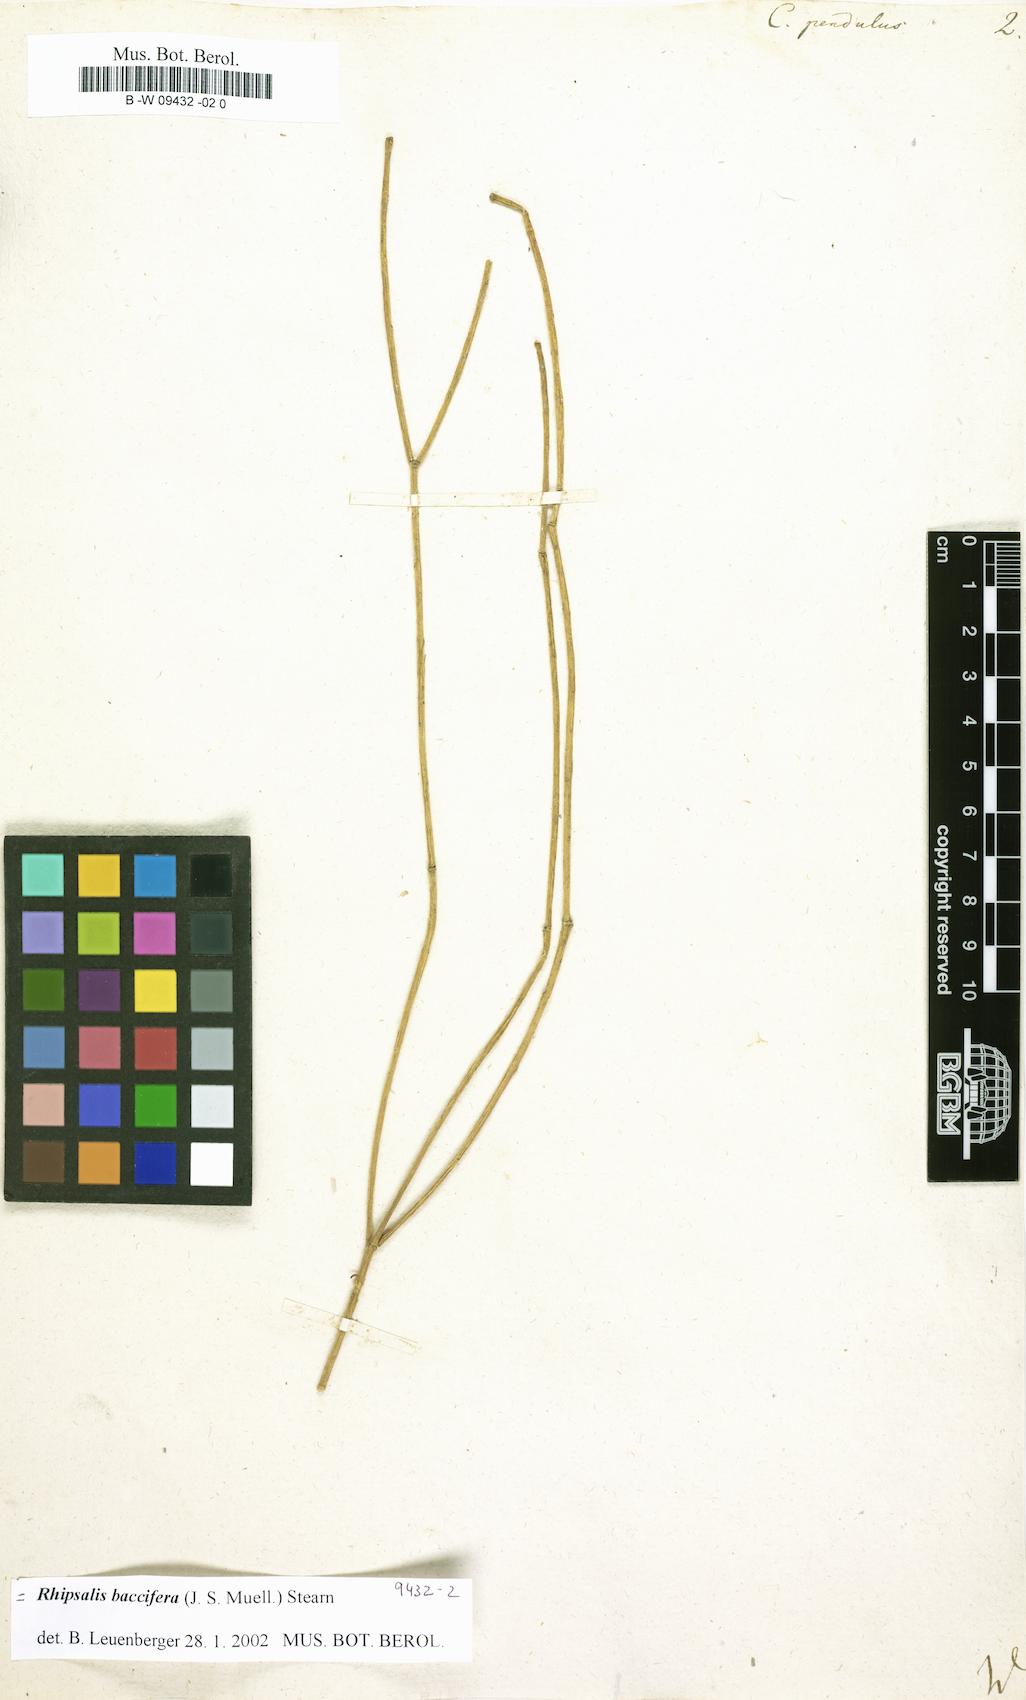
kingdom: Plantae
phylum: Tracheophyta
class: Magnoliopsida
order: Caryophyllales
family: Cactaceae
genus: Rhipsalis
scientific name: Rhipsalis baccifera
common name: Mistletoe cactus
